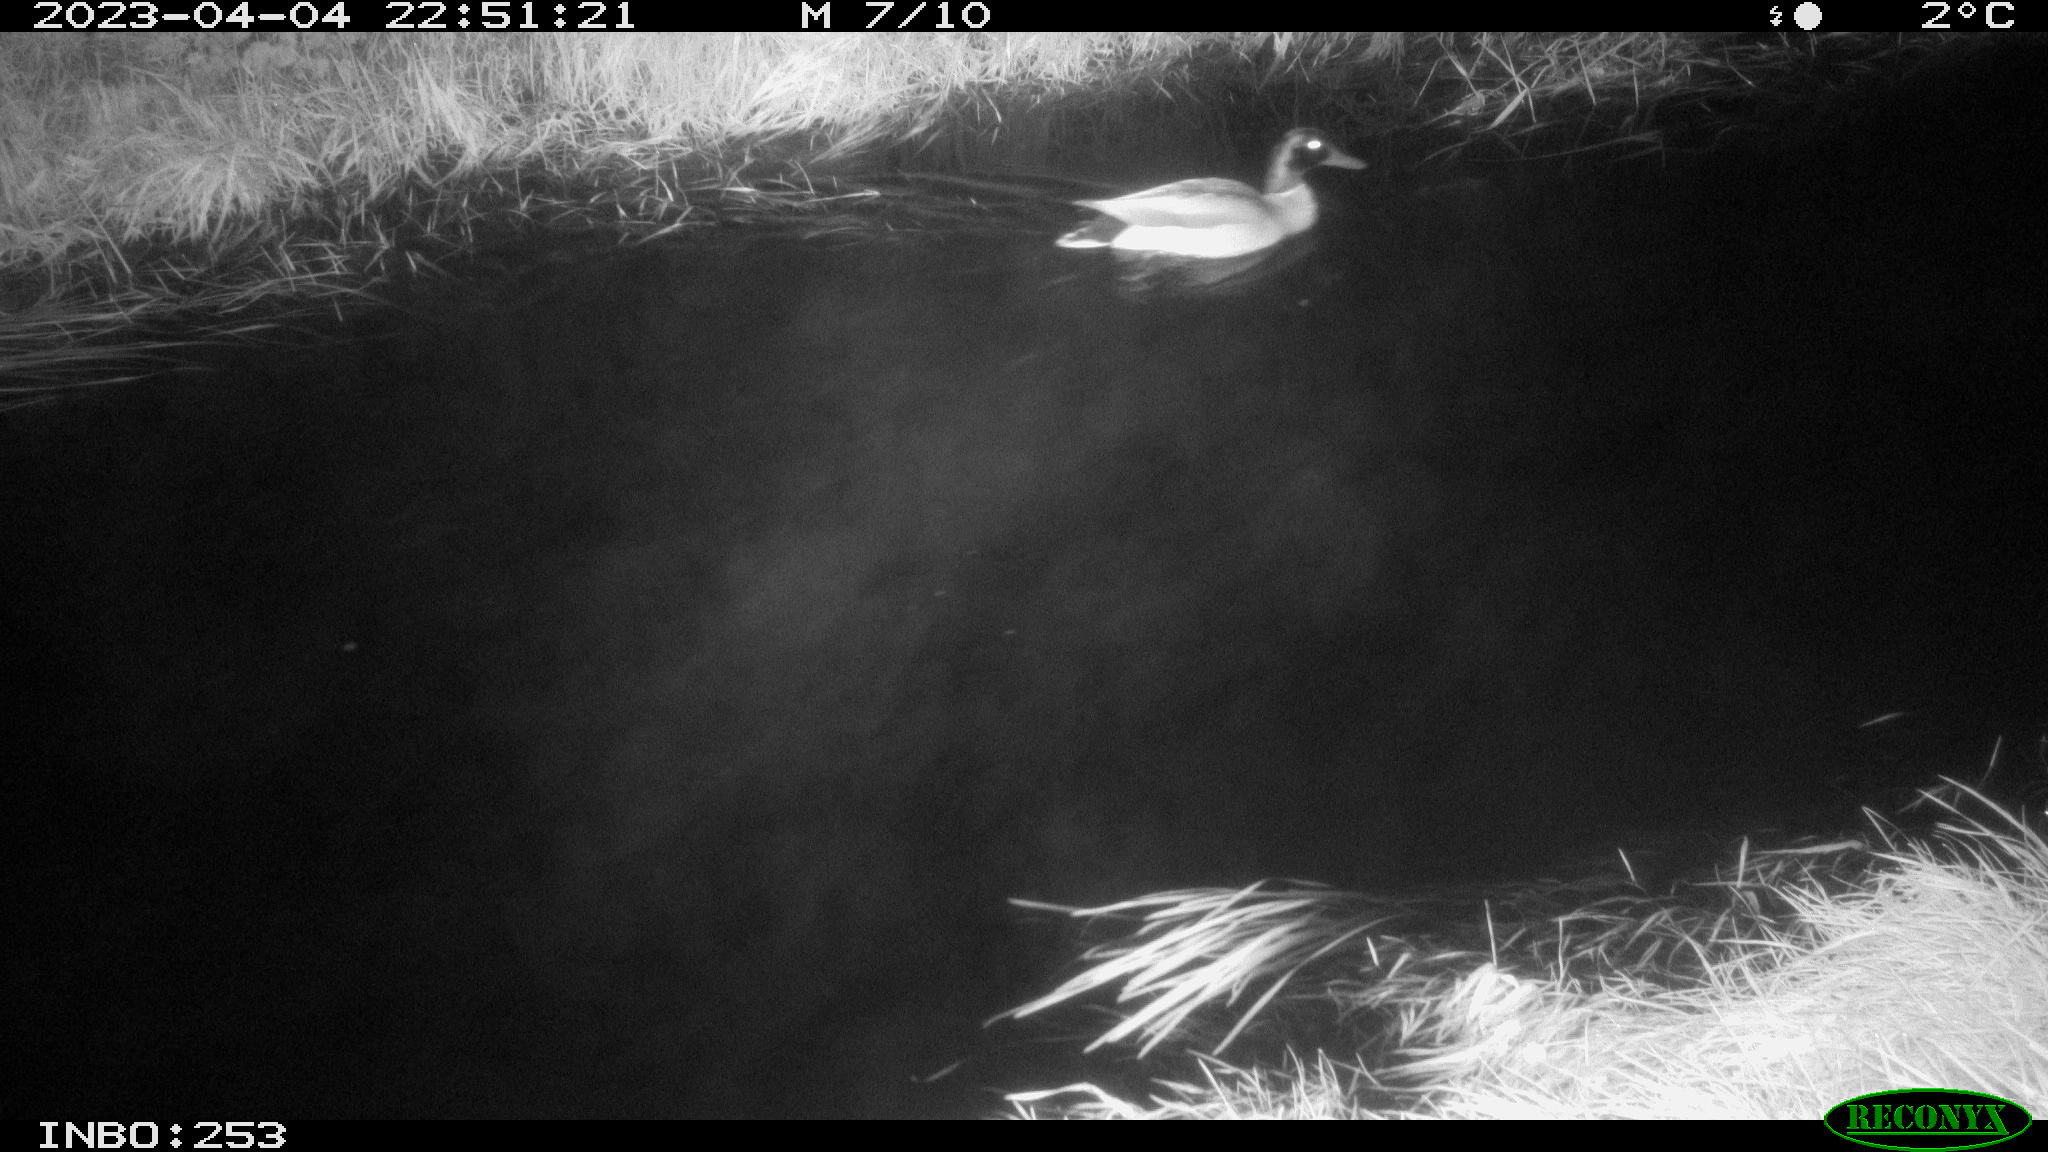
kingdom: Animalia
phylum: Chordata
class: Aves
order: Anseriformes
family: Anatidae
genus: Anas
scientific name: Anas
